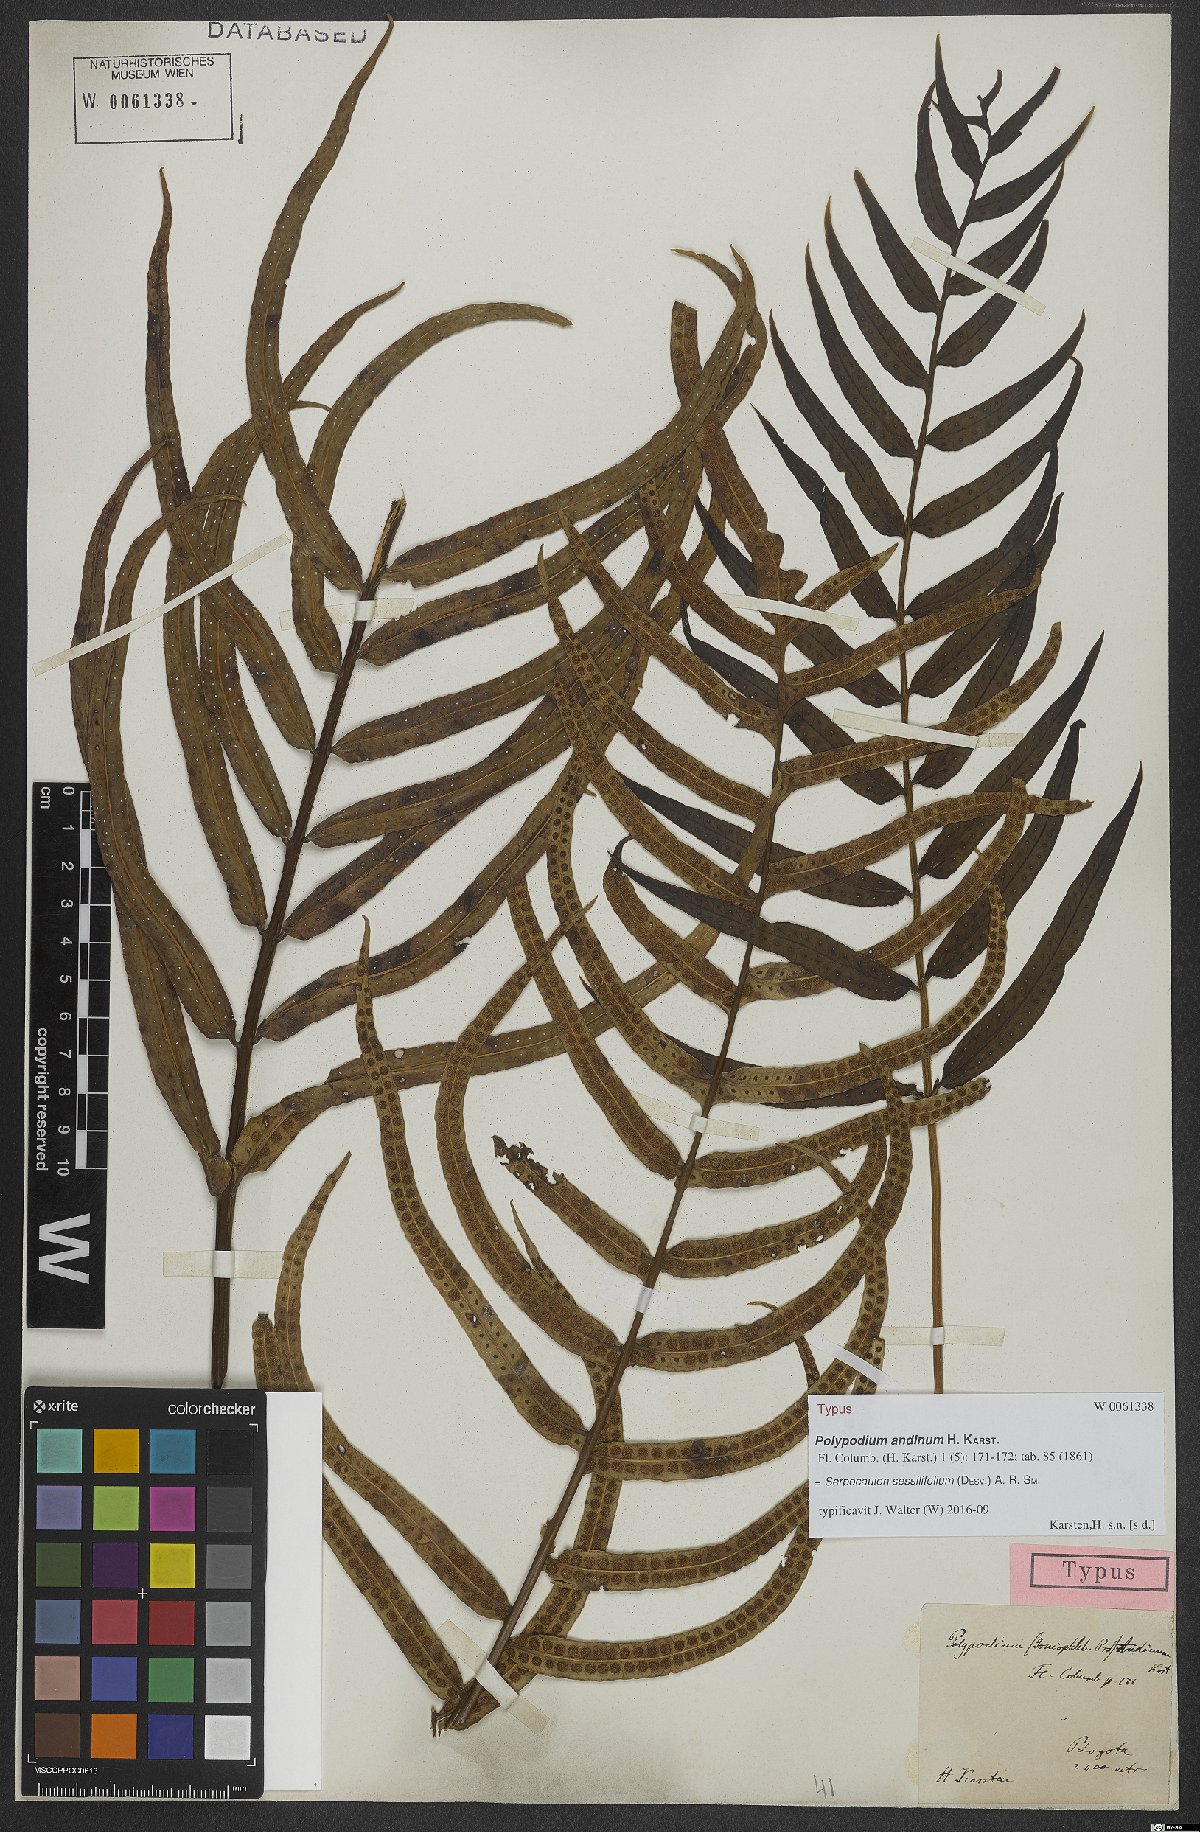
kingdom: Plantae
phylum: Tracheophyta
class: Polypodiopsida
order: Polypodiales
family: Polypodiaceae
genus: Serpocaulon
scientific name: Serpocaulon sessilifolium
